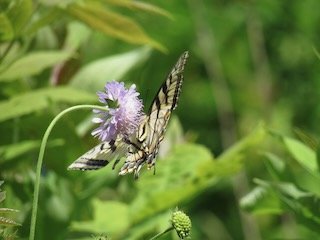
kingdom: Animalia
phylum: Arthropoda
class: Insecta
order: Lepidoptera
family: Papilionidae
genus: Pterourus
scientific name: Pterourus canadensis
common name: Canadian Tiger Swallowtail
